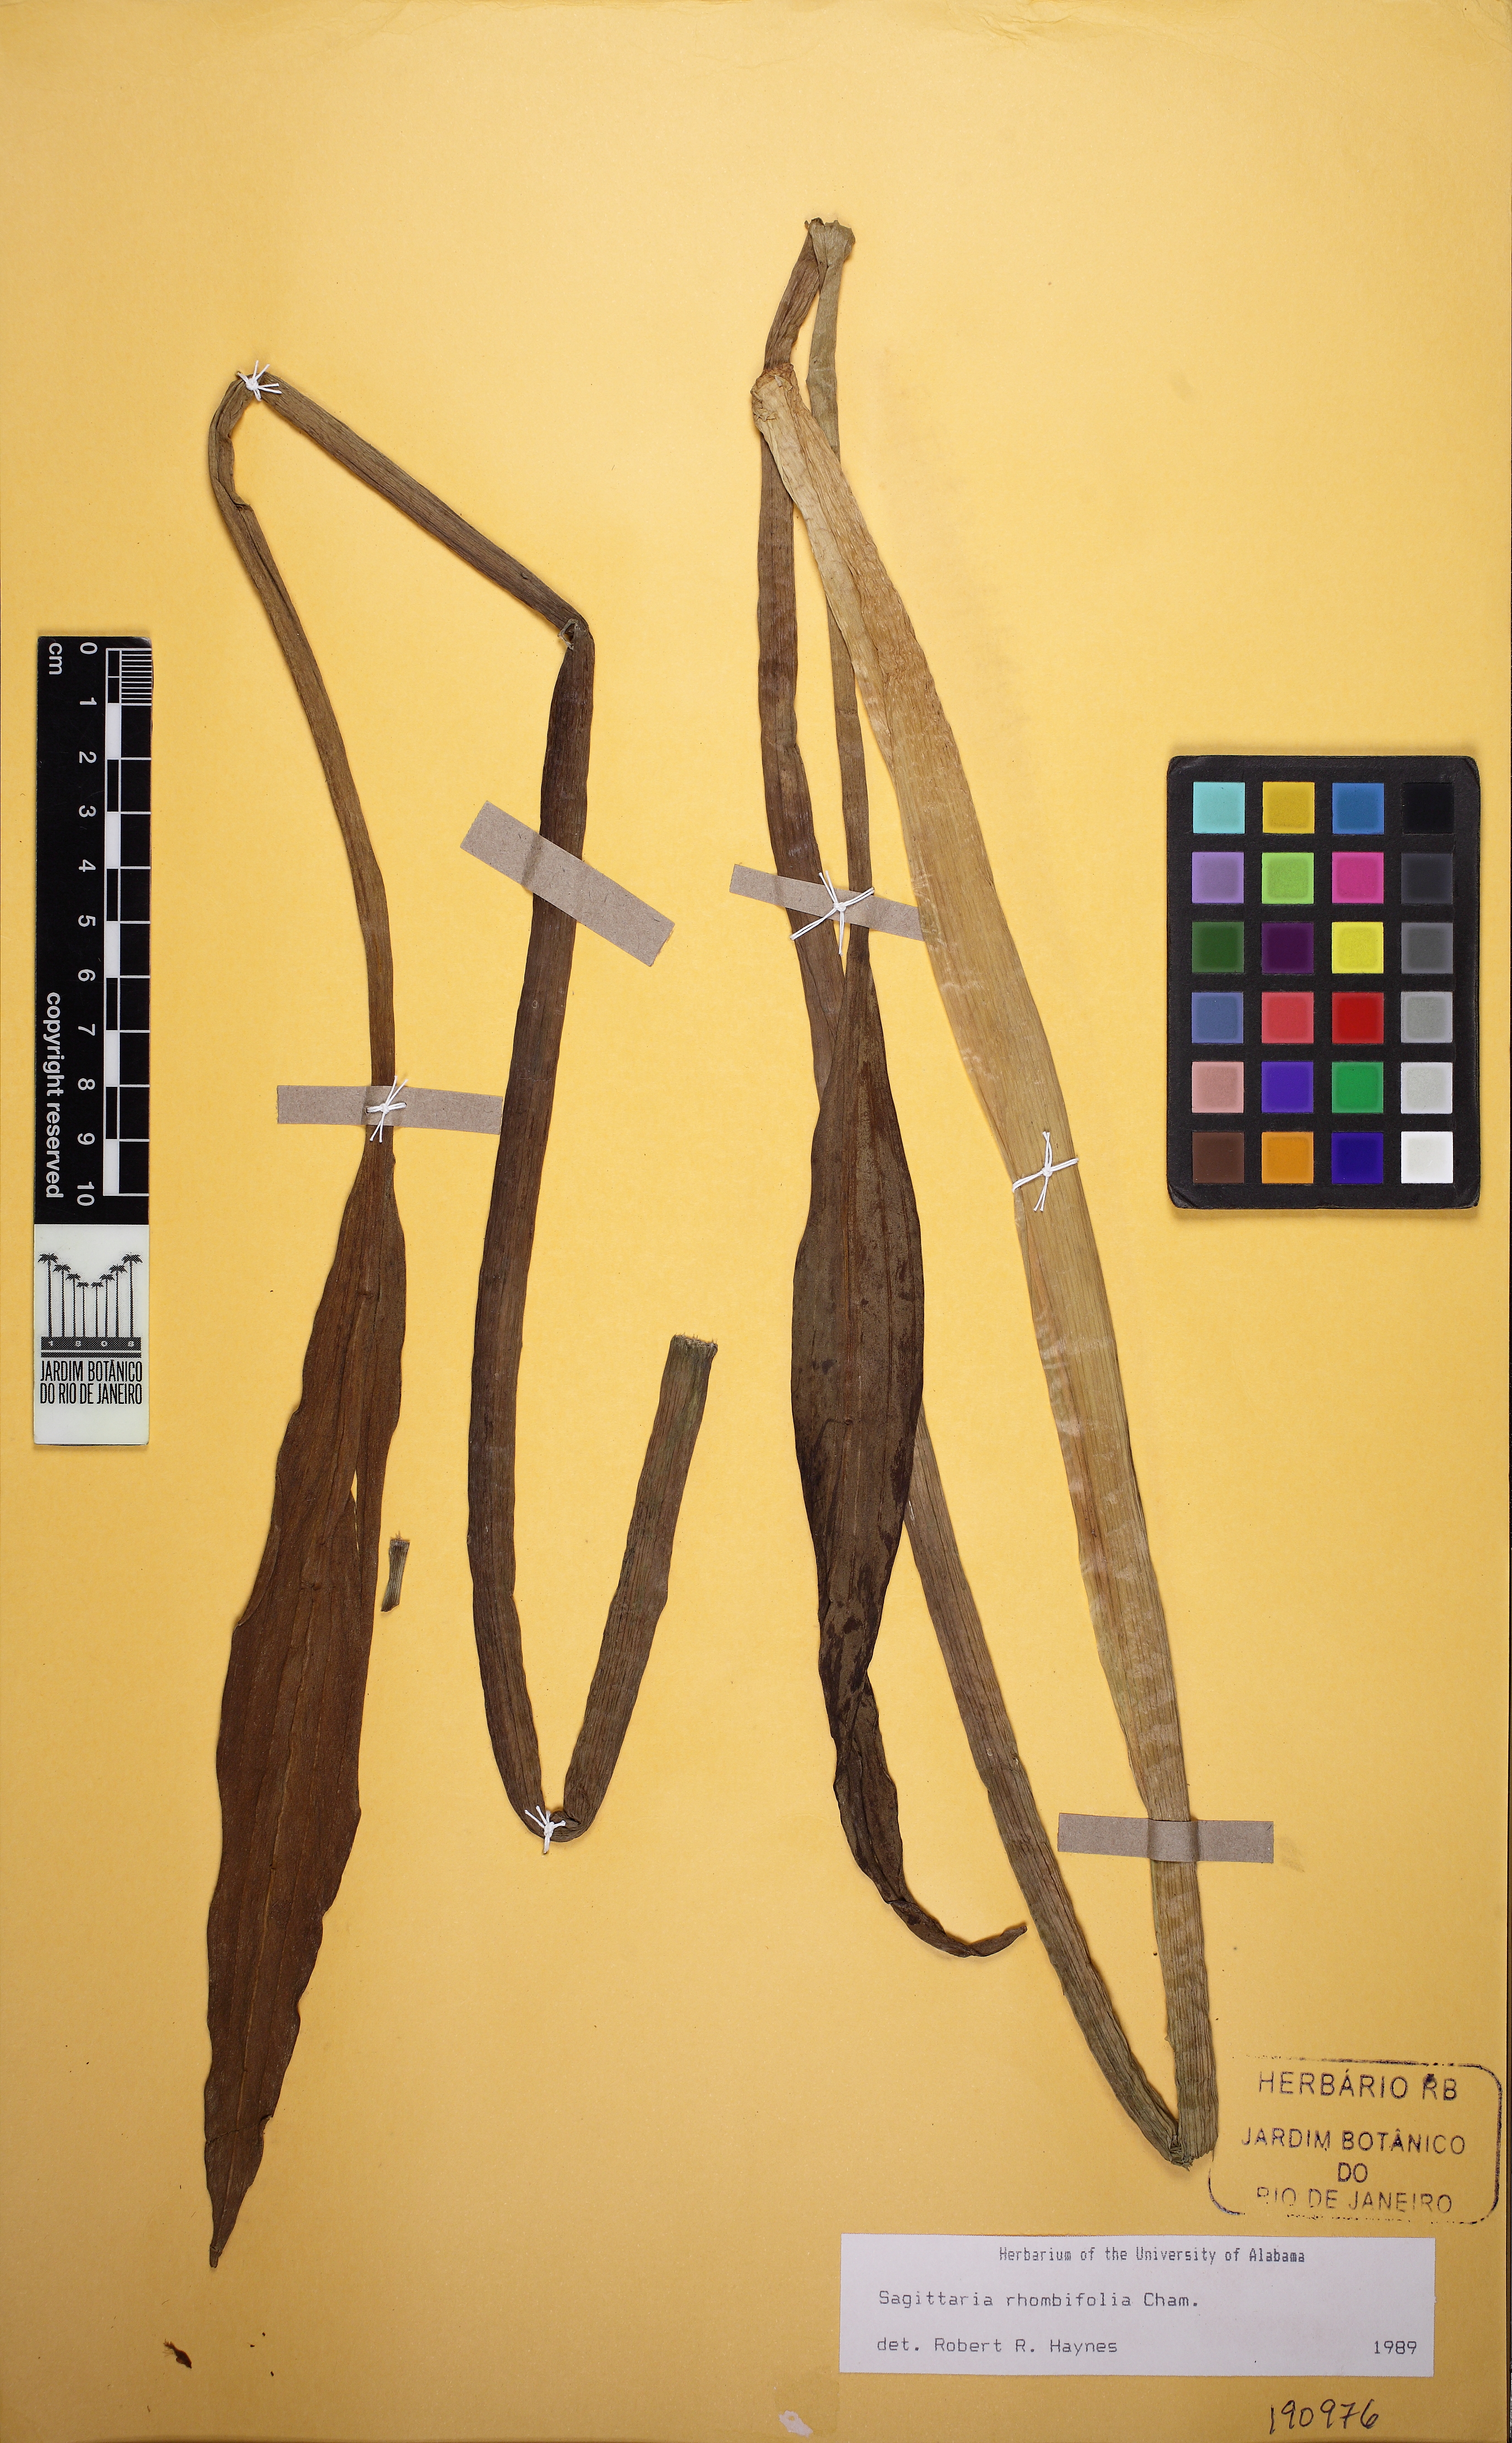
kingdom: Plantae
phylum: Tracheophyta
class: Liliopsida
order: Alismatales
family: Alismataceae
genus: Sagittaria
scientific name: Sagittaria rhombifolia
